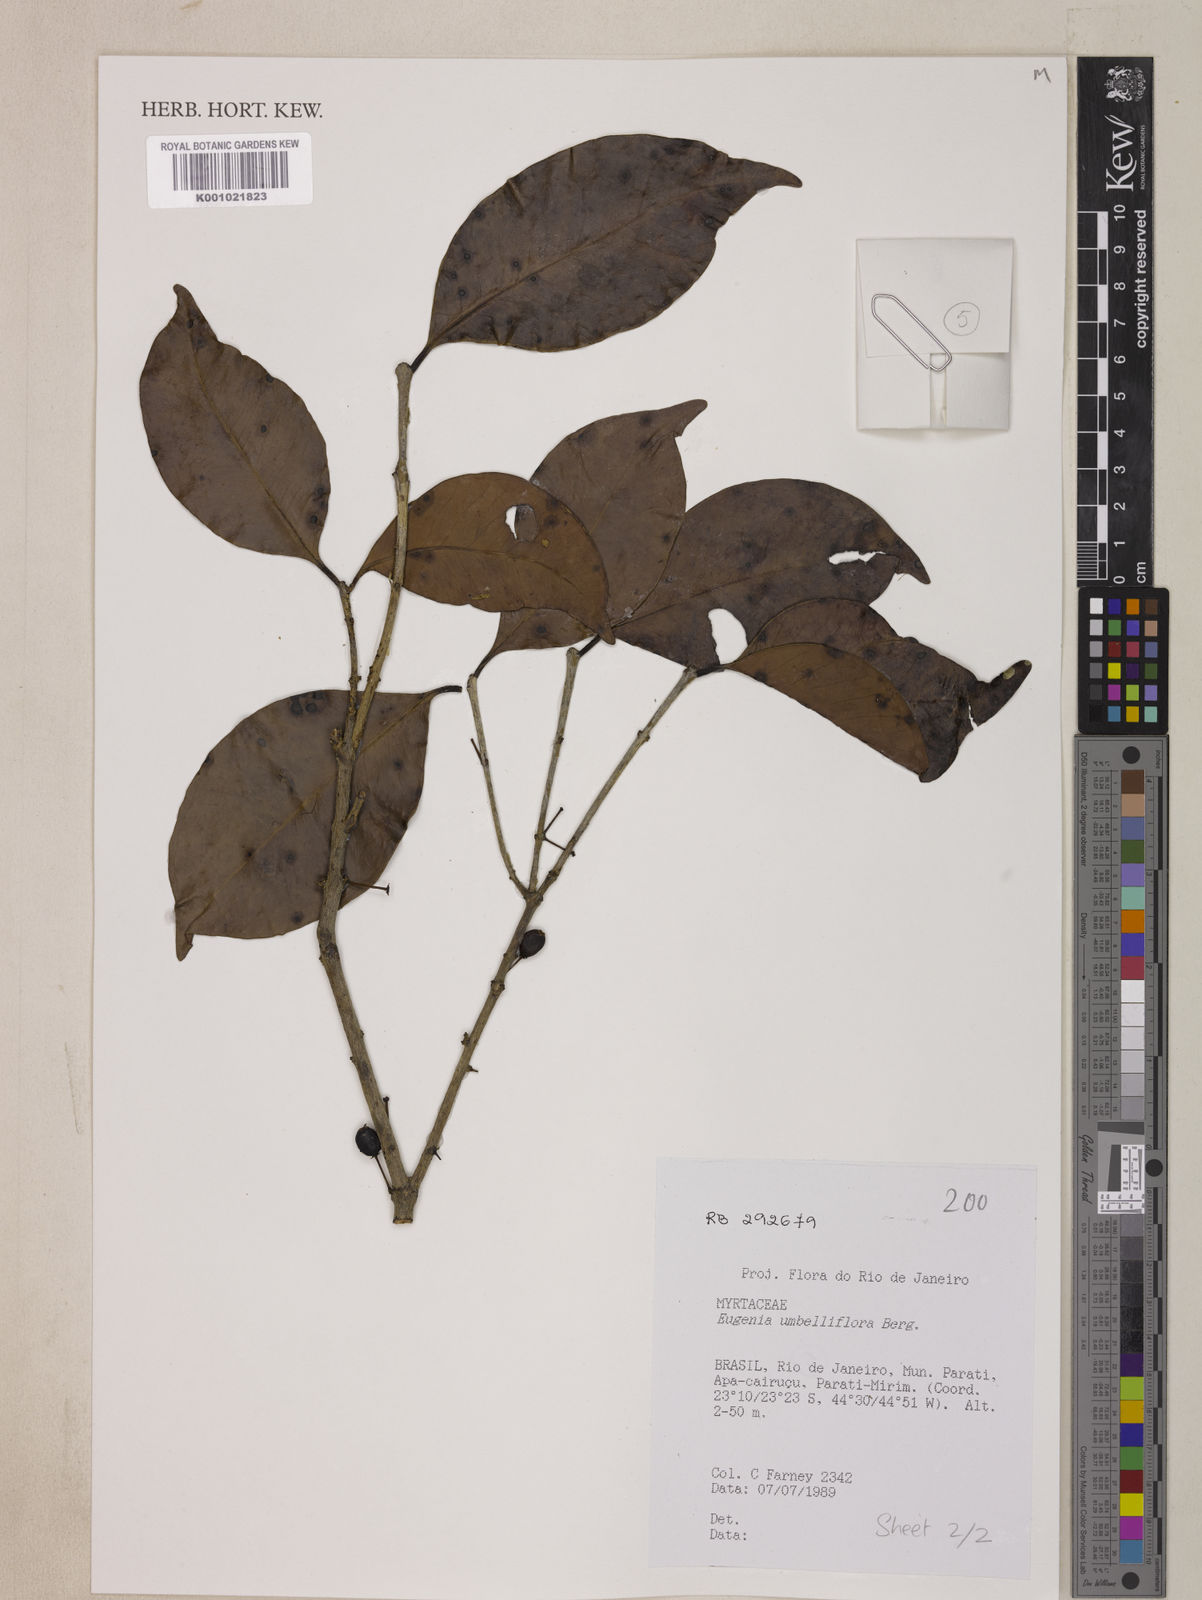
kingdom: Plantae
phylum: Tracheophyta
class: Magnoliopsida
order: Myrtales
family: Myrtaceae
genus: Eugenia
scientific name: Eugenia astringens
